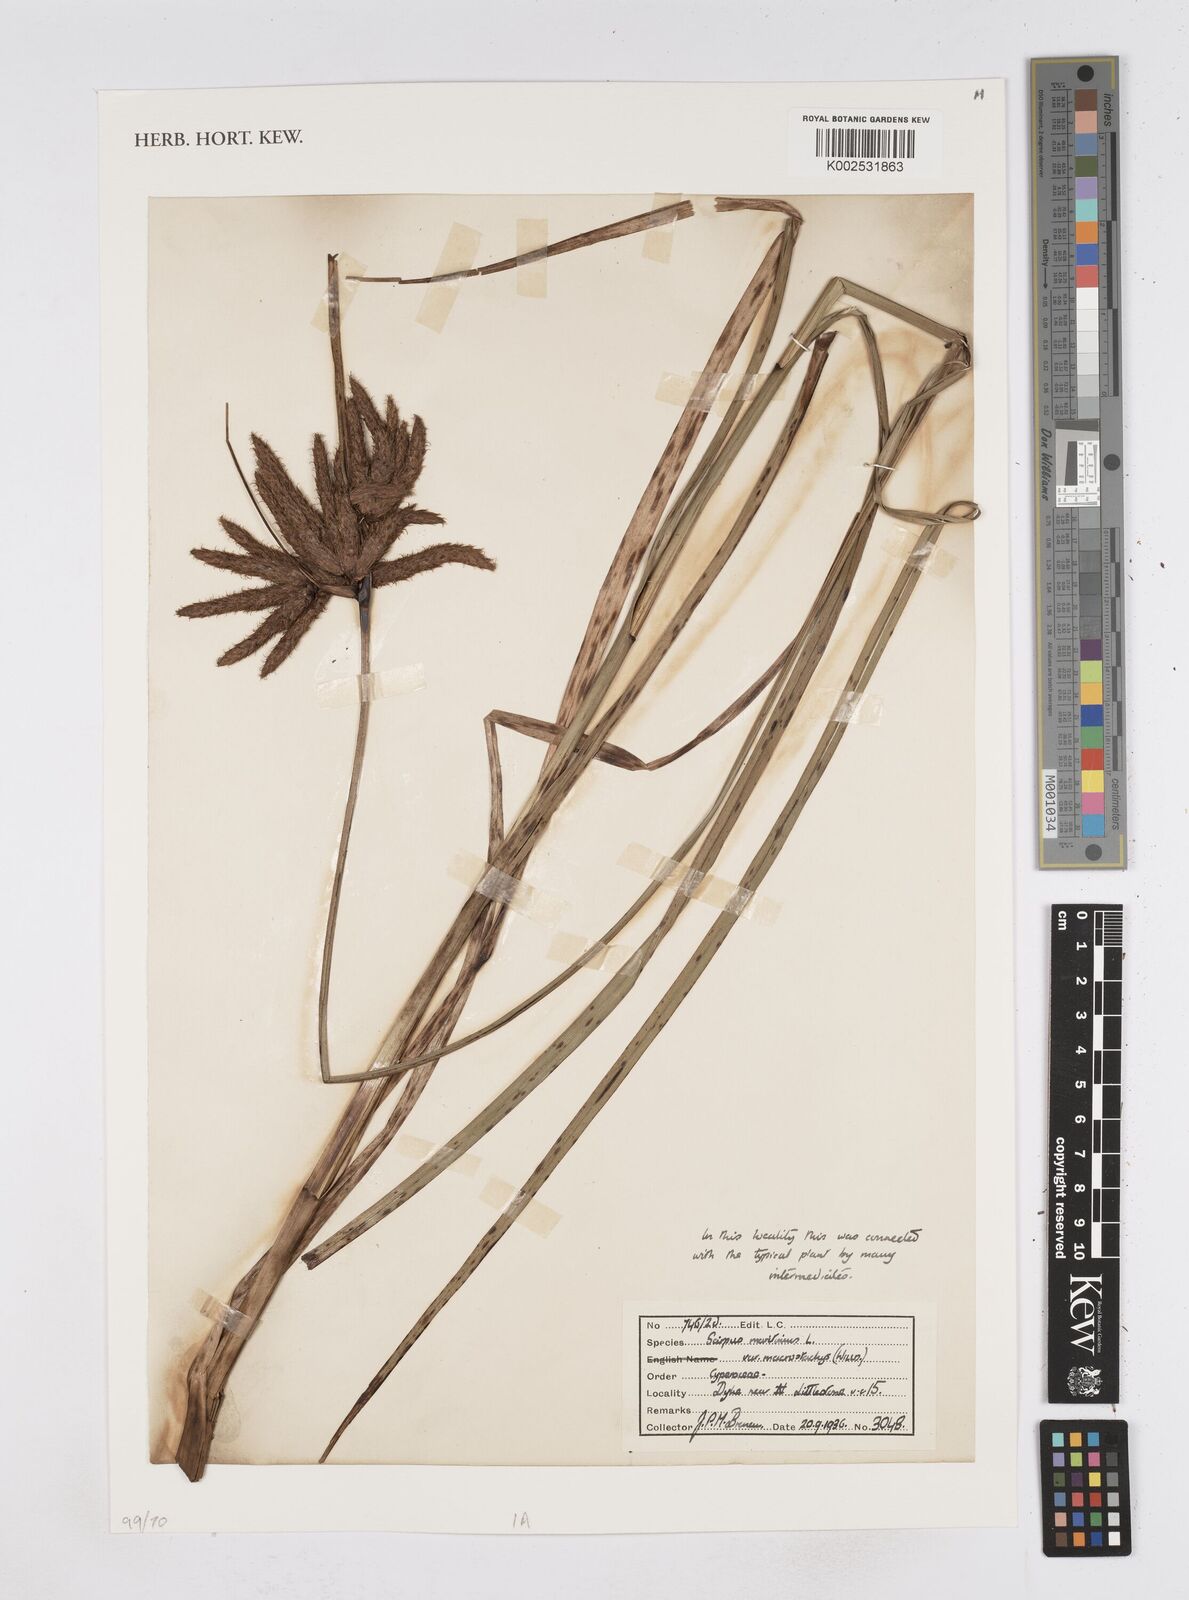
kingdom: Plantae
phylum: Tracheophyta
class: Liliopsida
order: Poales
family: Cyperaceae
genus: Bolboschoenus
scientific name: Bolboschoenus maritimus
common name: Sea club-rush
